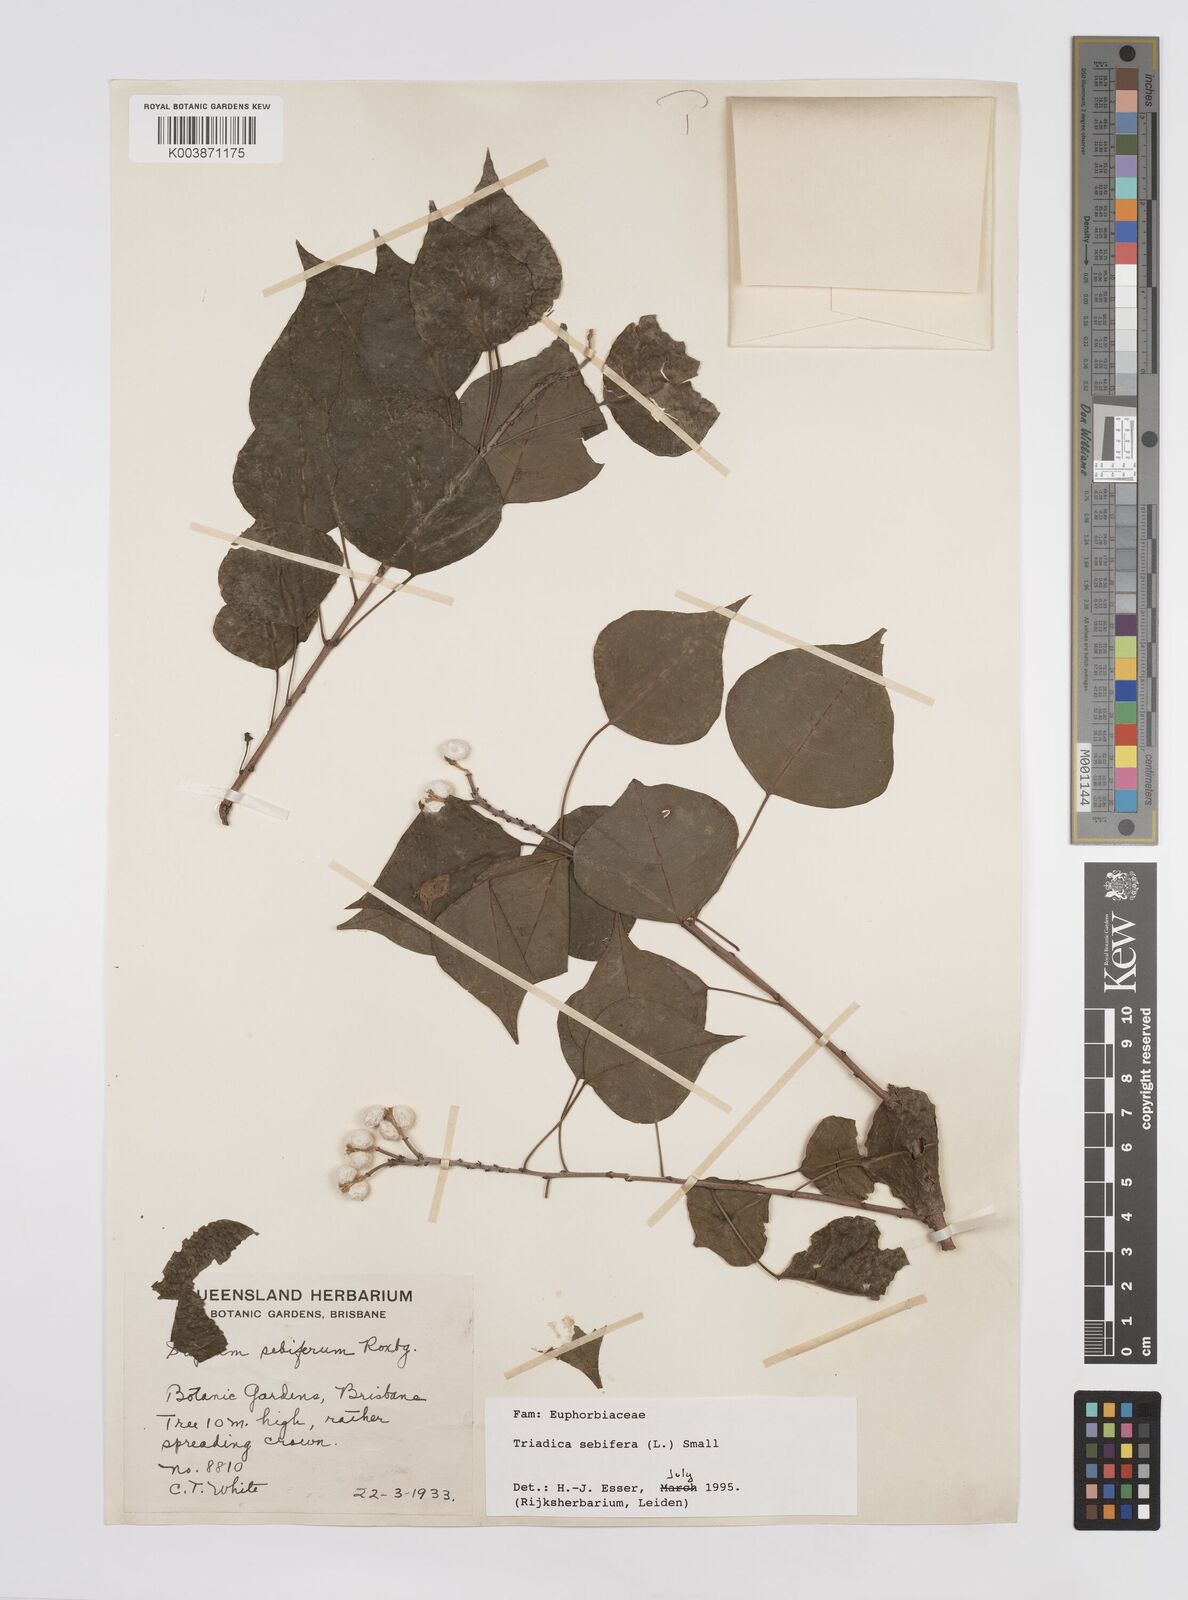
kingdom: Plantae
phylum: Tracheophyta
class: Magnoliopsida
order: Malpighiales
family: Euphorbiaceae
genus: Triadica
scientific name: Triadica sebifera
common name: Chinese tallow
